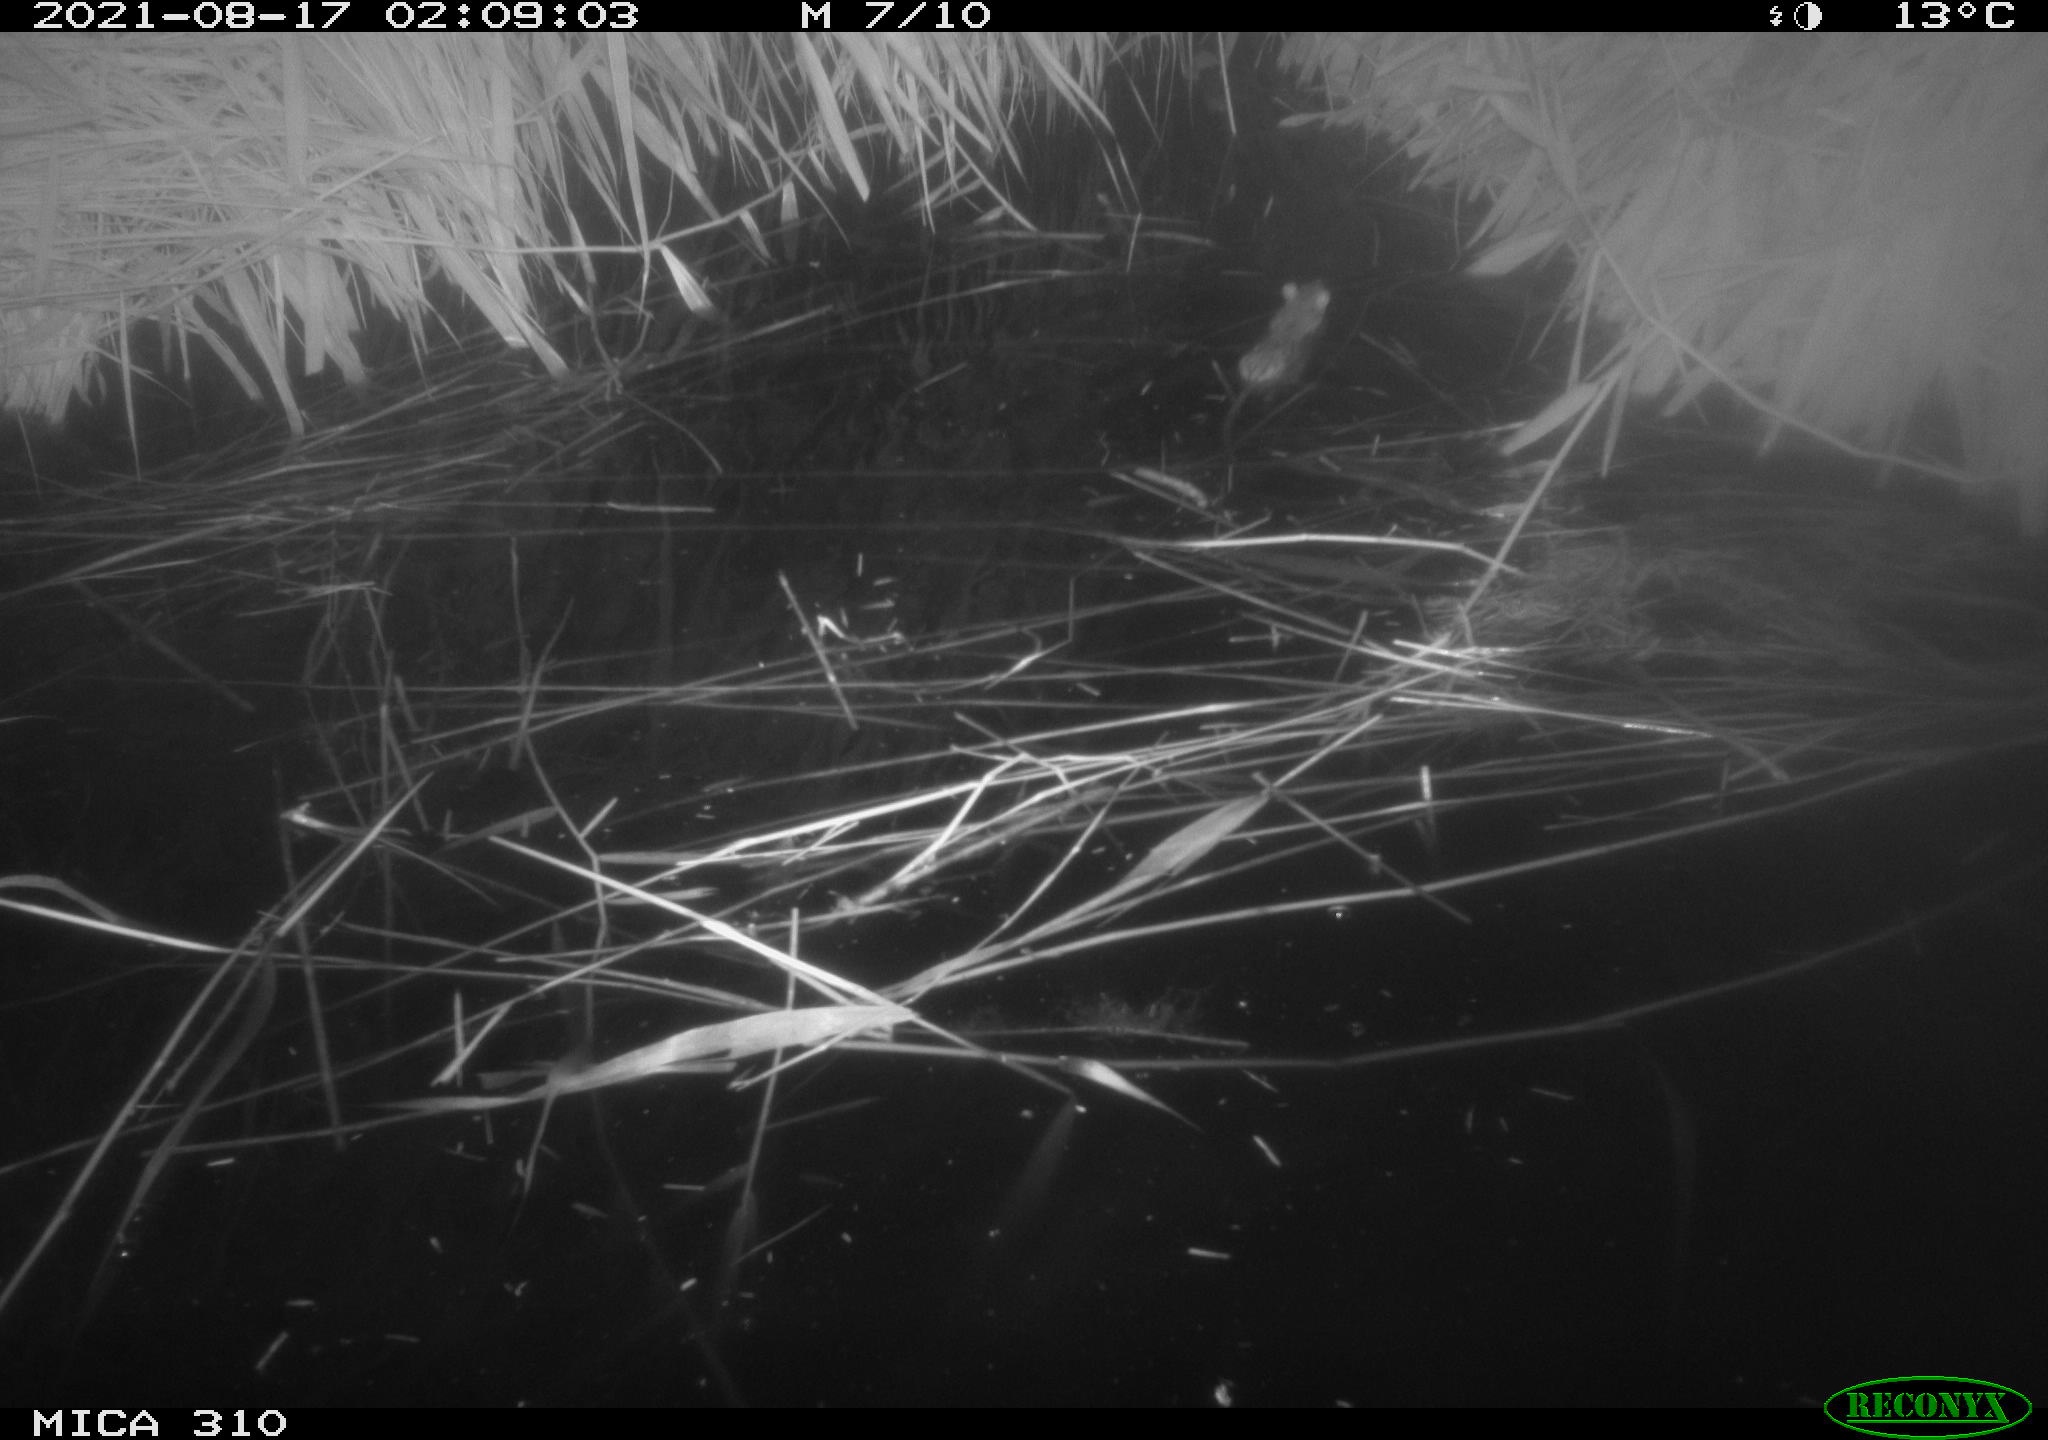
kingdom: Animalia
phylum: Chordata
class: Mammalia
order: Rodentia
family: Muridae
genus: Rattus
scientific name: Rattus norvegicus
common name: Brown rat
